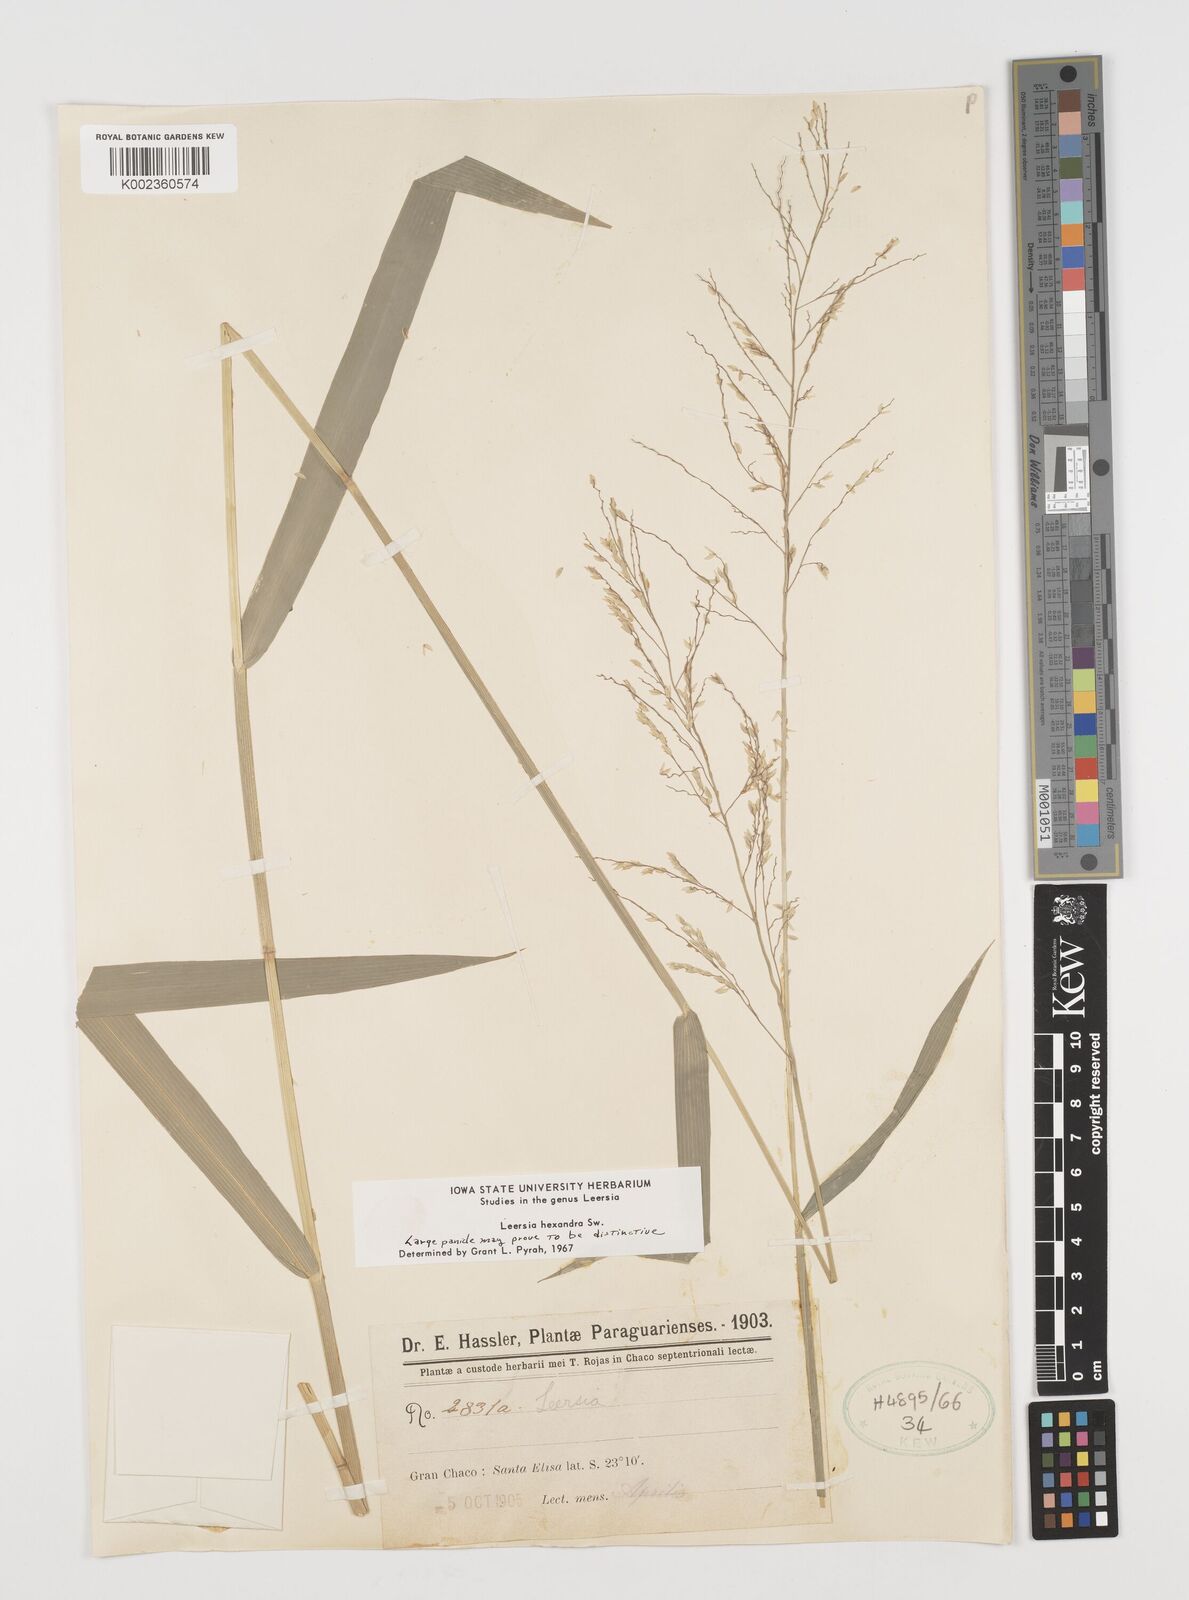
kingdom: Plantae
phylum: Tracheophyta
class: Liliopsida
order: Poales
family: Poaceae
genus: Leersia
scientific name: Leersia hexandra
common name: Southern cut grass
